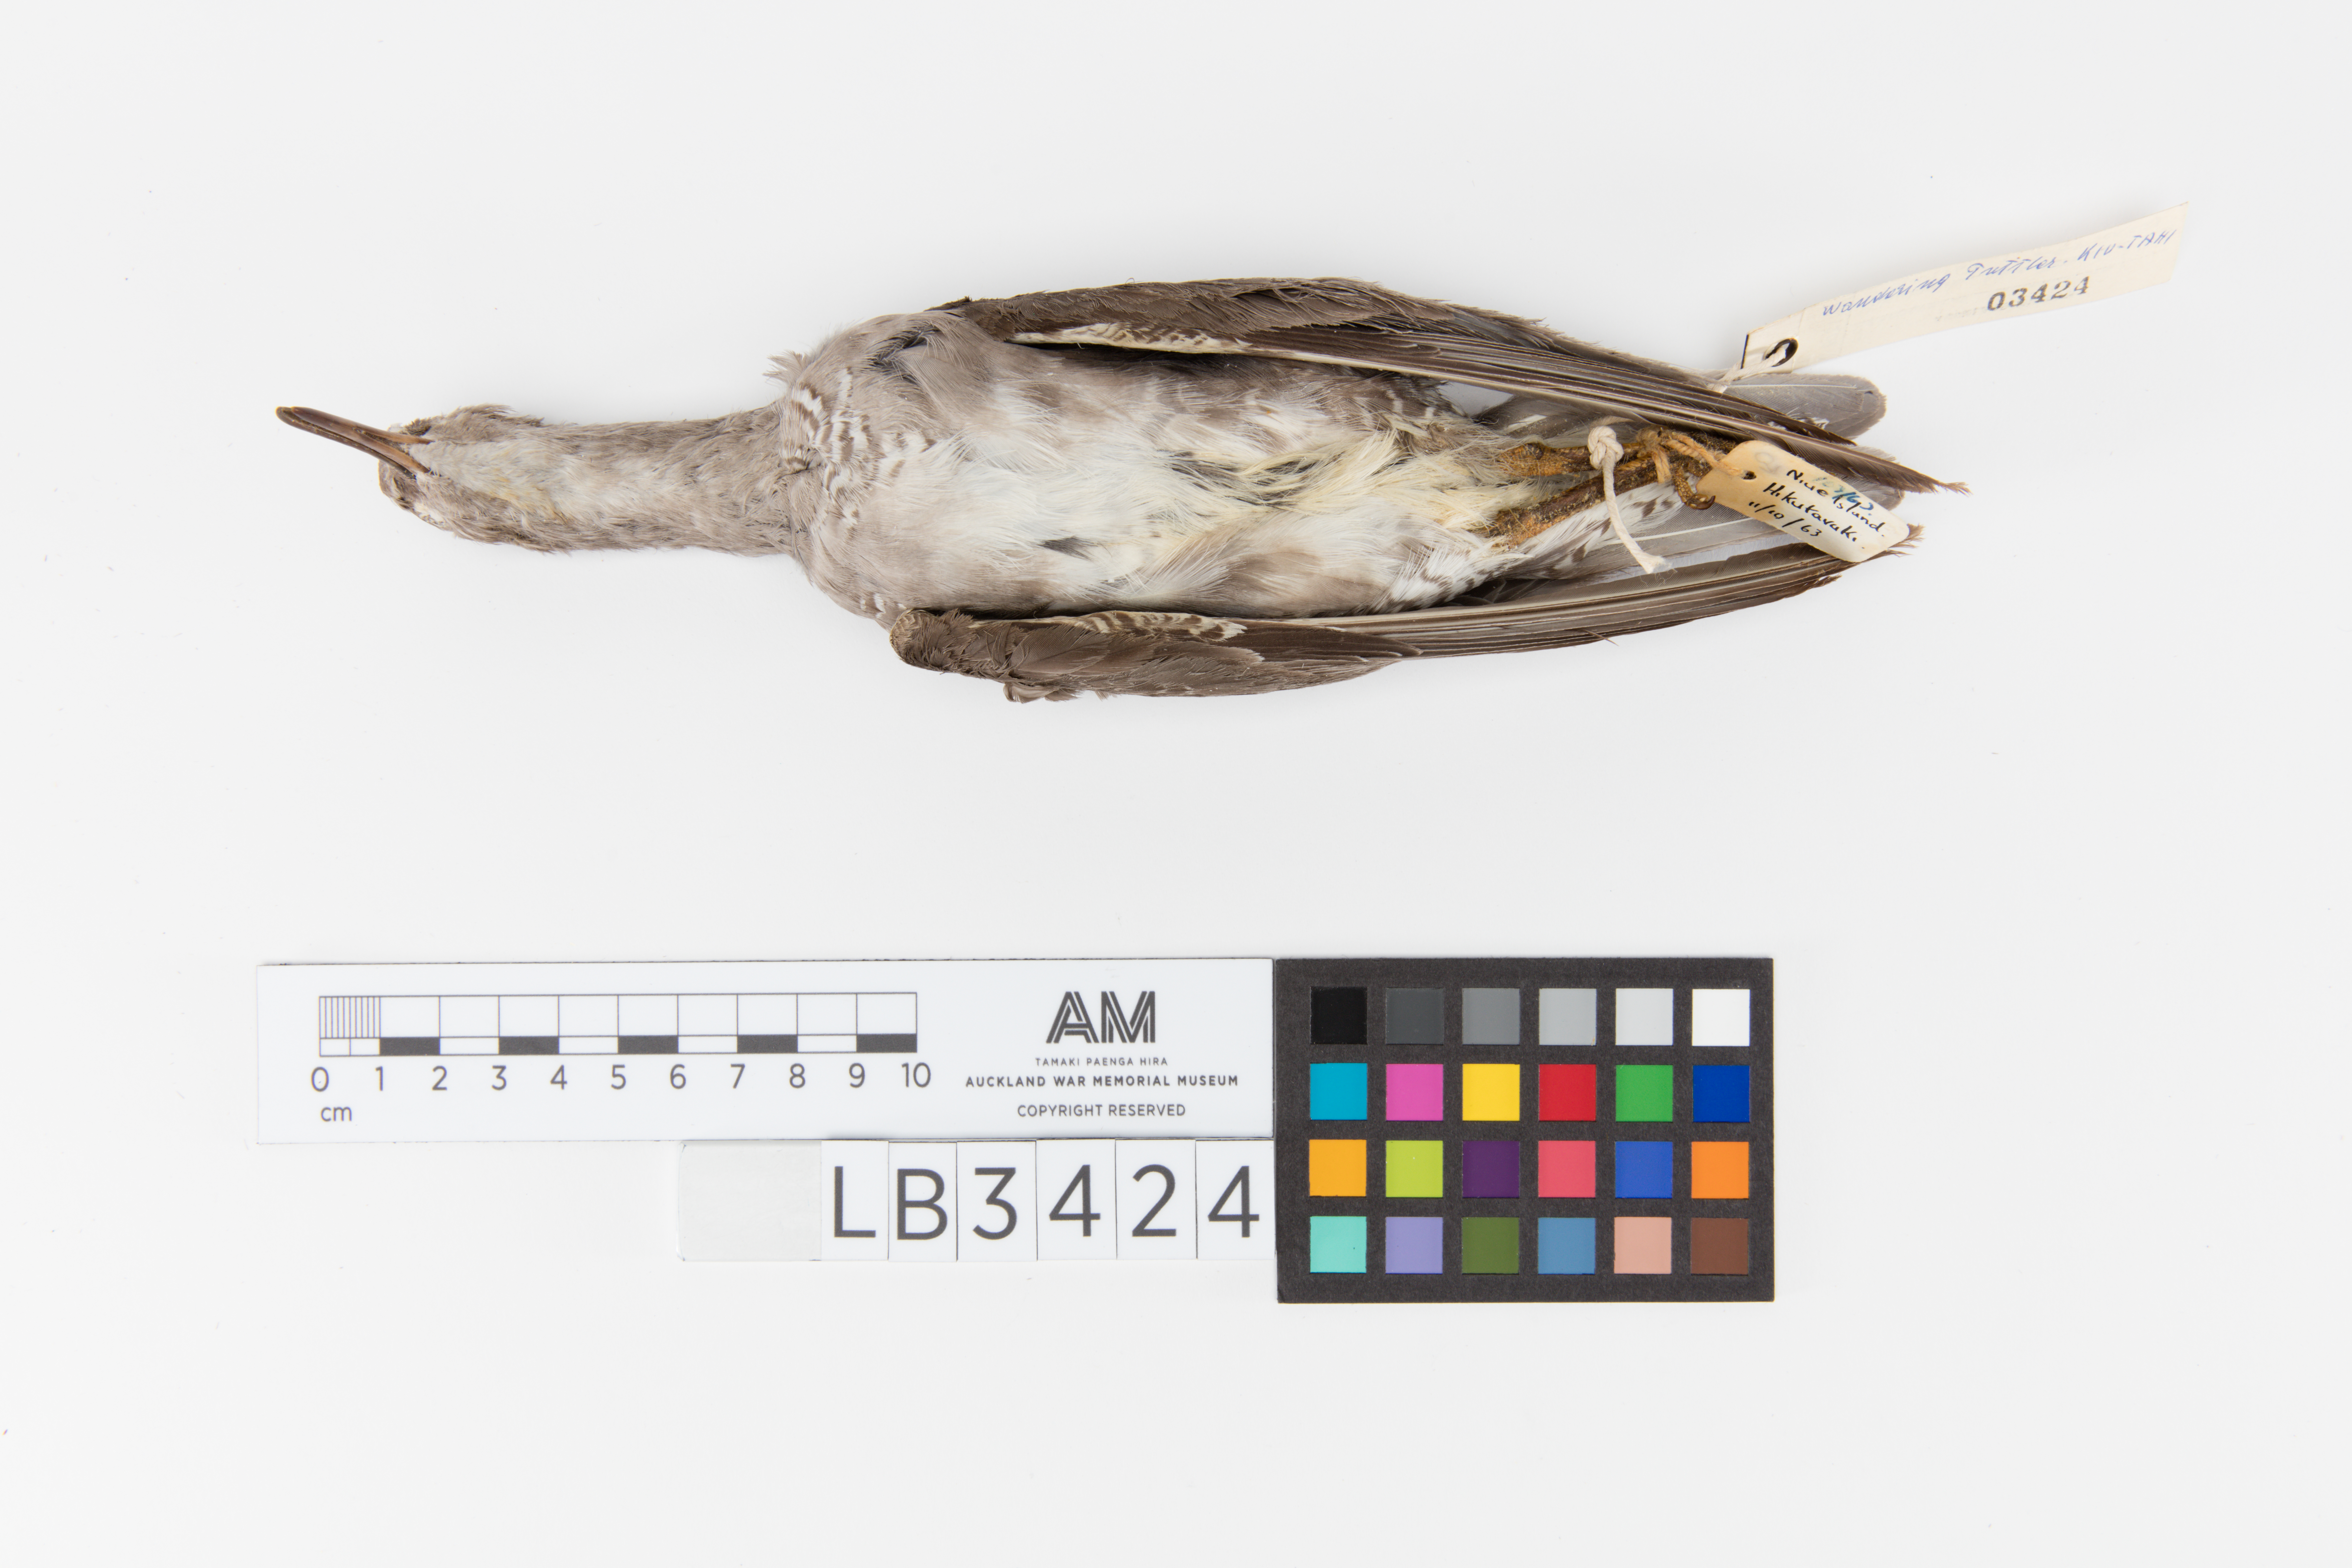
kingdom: Animalia
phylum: Chordata
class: Aves
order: Charadriiformes
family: Scolopacidae
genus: Tringa
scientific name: Tringa incana
